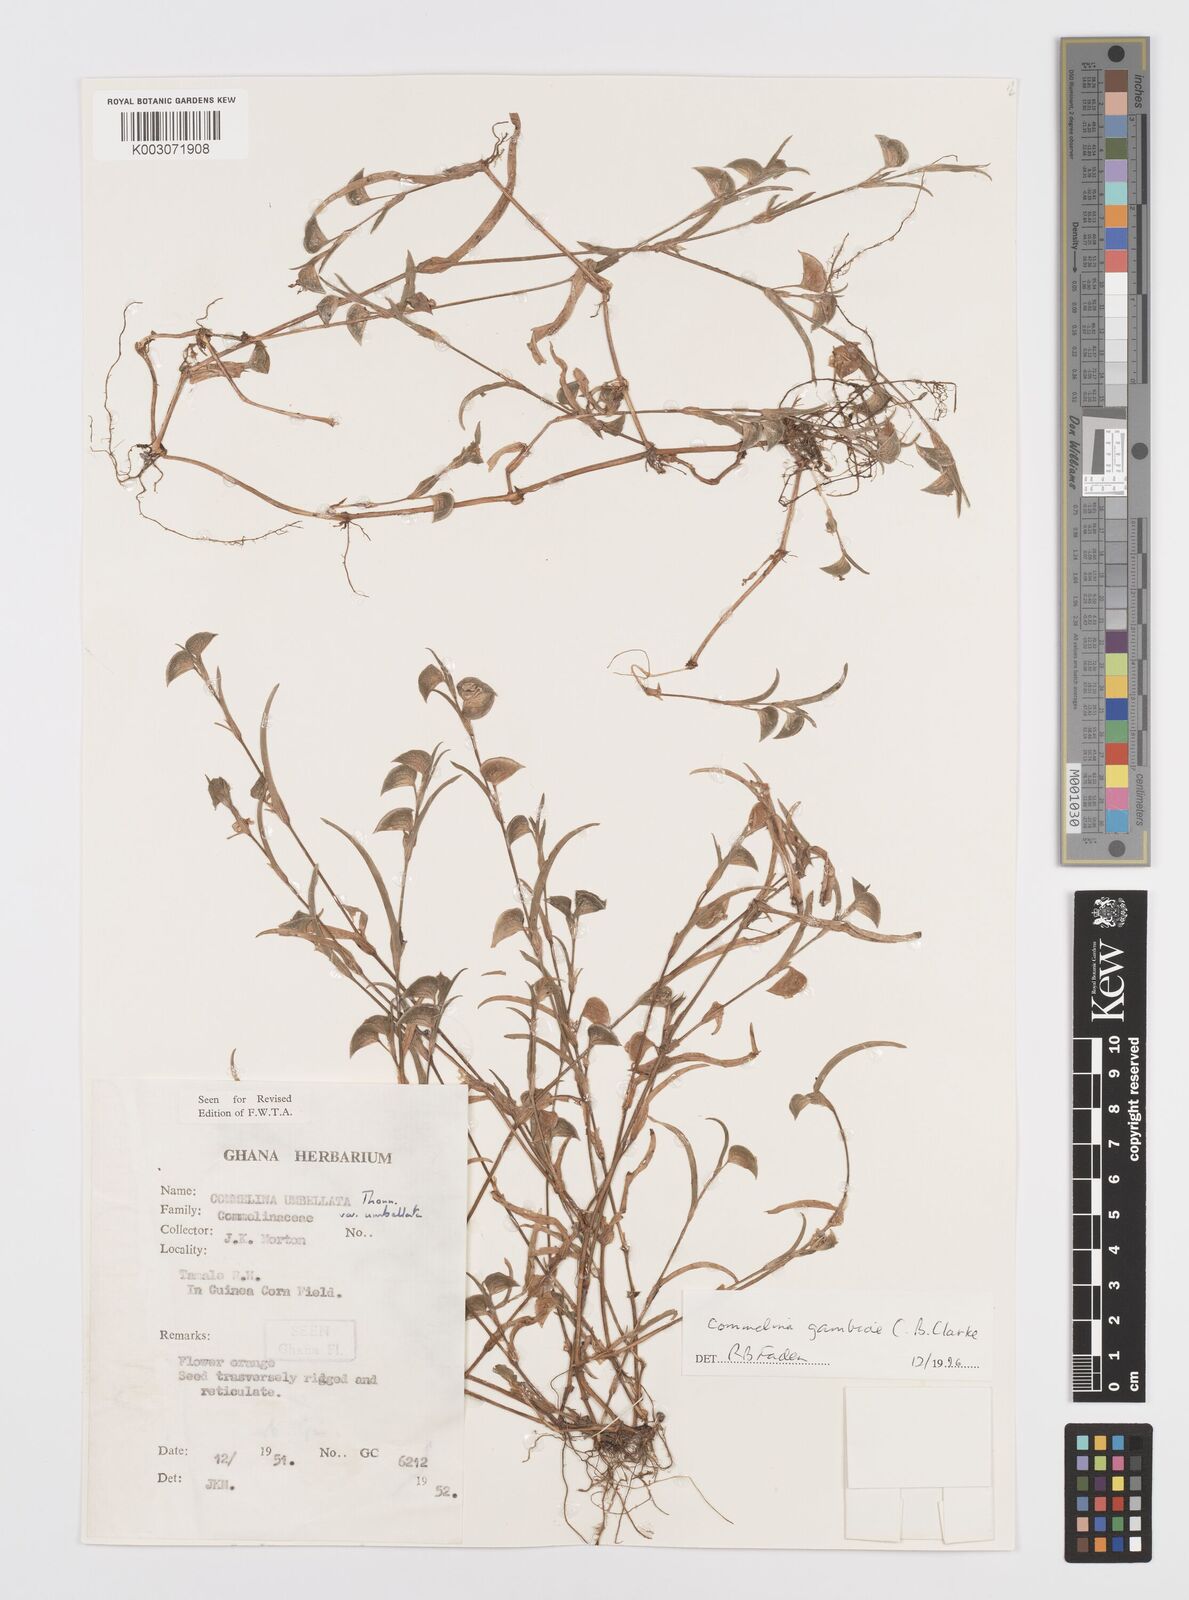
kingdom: Plantae
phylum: Tracheophyta
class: Liliopsida
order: Commelinales
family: Commelinaceae
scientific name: Commelinaceae
